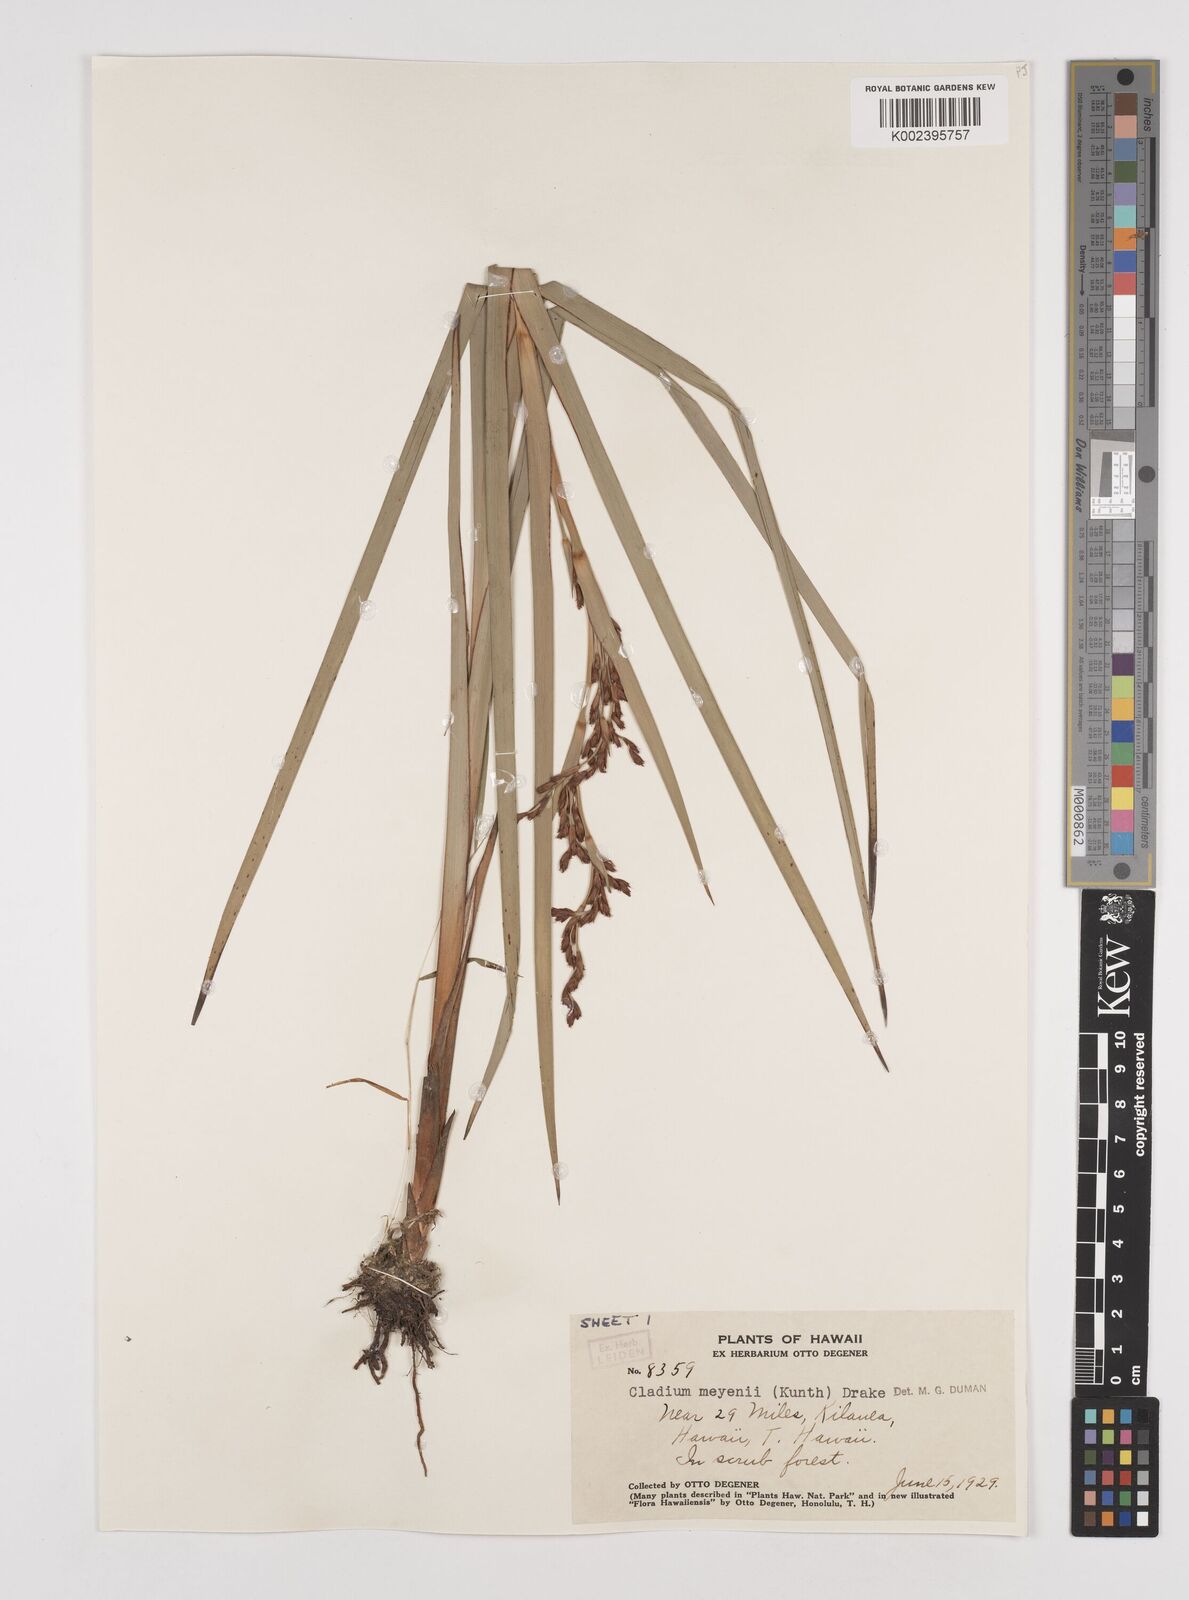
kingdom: Plantae
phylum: Tracheophyta
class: Liliopsida
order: Poales
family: Cyperaceae
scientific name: Cyperaceae
